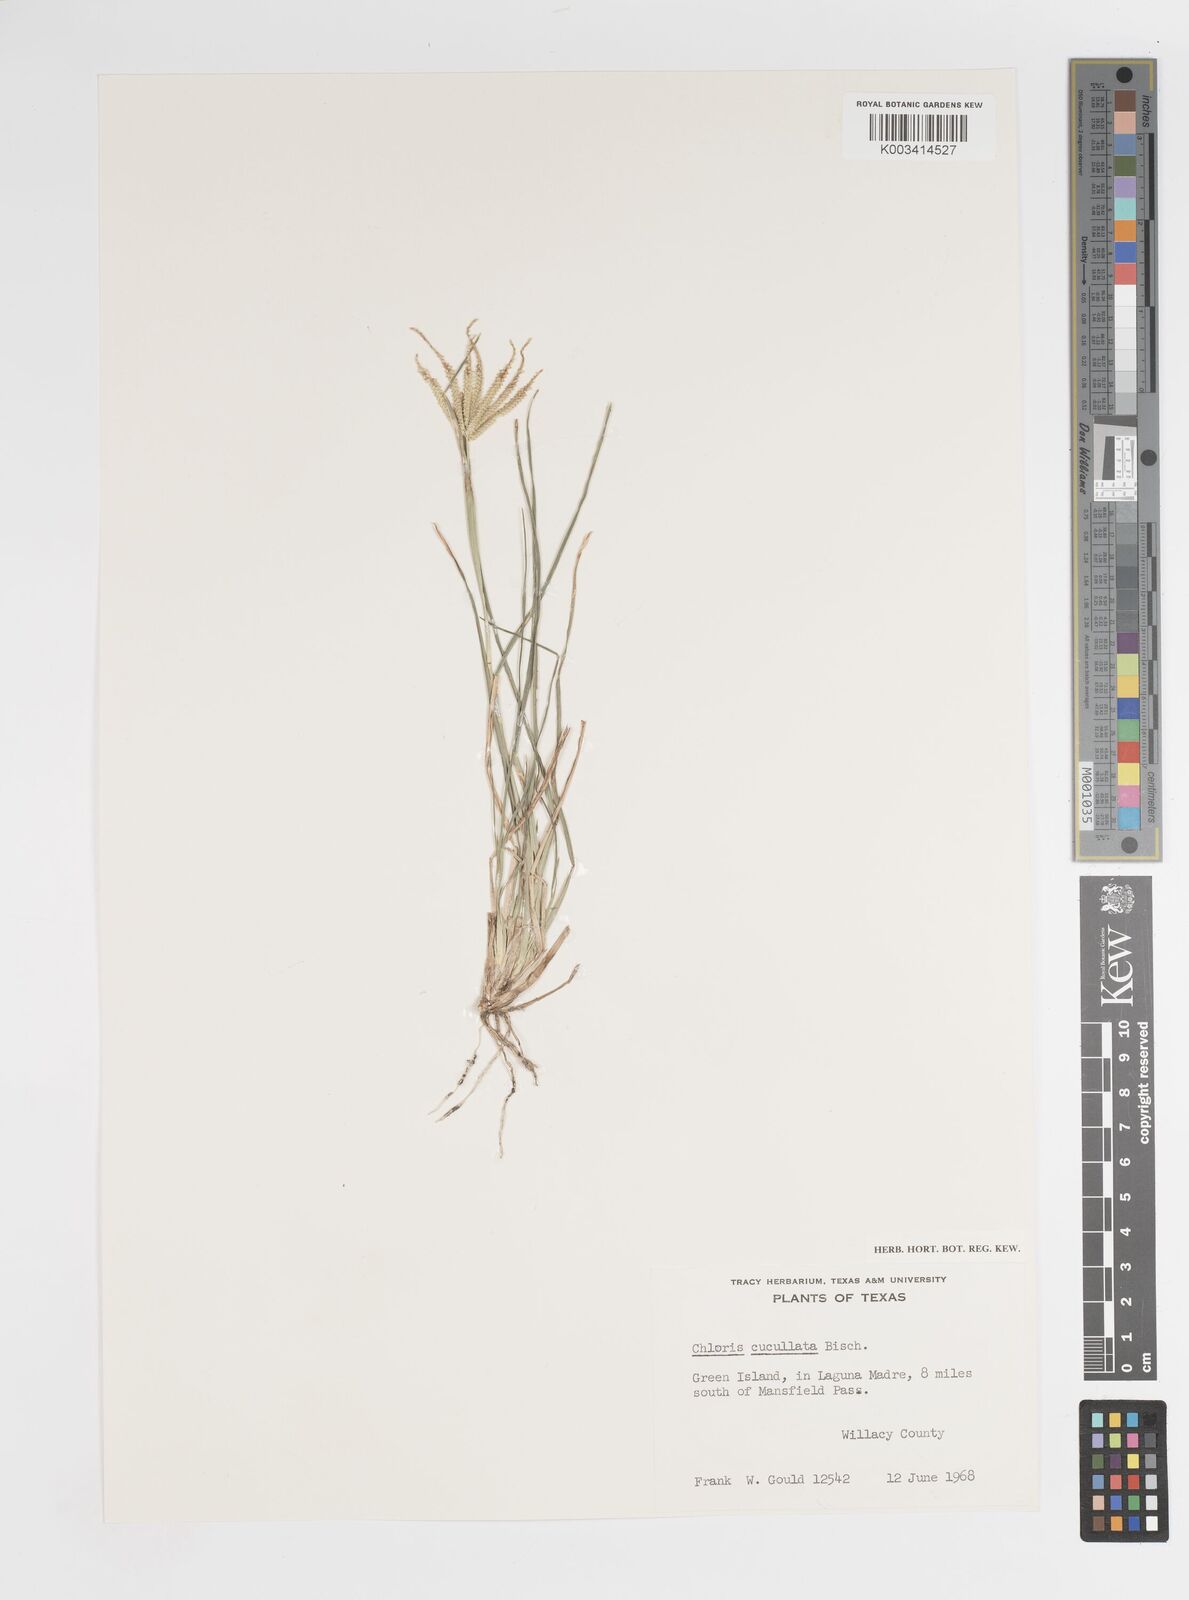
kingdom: Plantae
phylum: Tracheophyta
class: Liliopsida
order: Poales
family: Poaceae
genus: Chloris
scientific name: Chloris cucullata
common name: Hooded windmill grass
